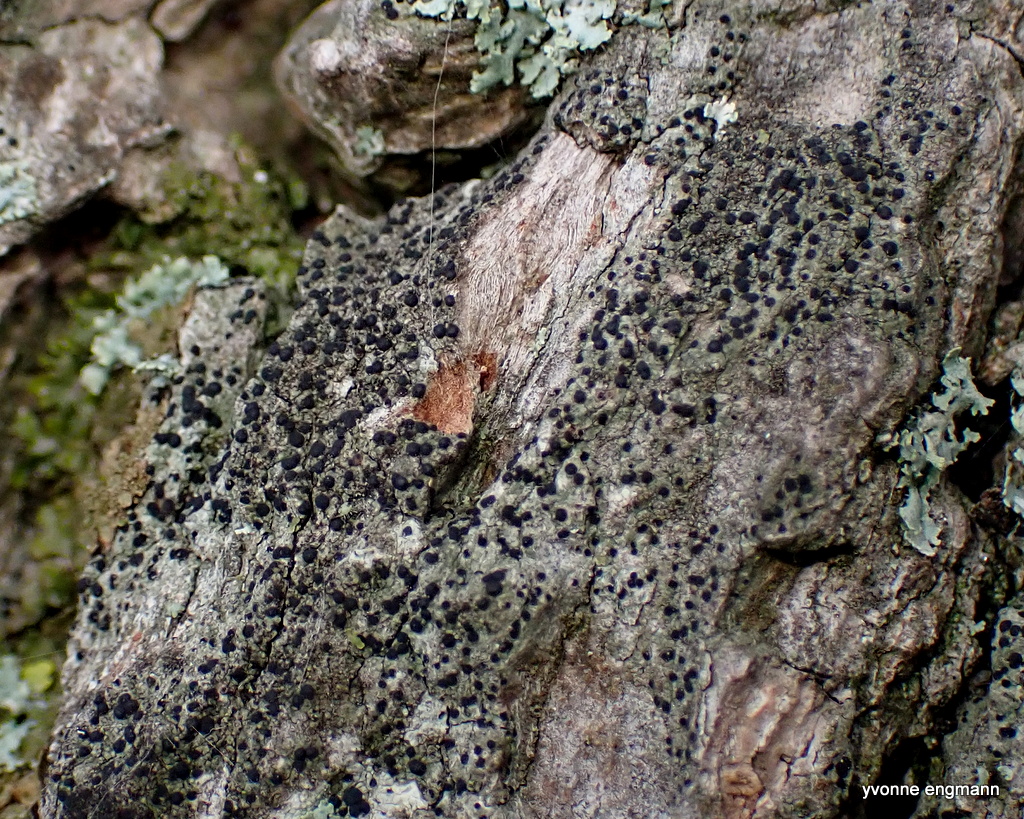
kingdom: Fungi
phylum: Ascomycota
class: Lecanoromycetes
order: Lecanorales
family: Lecanoraceae
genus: Lecidella
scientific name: Lecidella elaeochroma
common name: grågrøn skivelav
